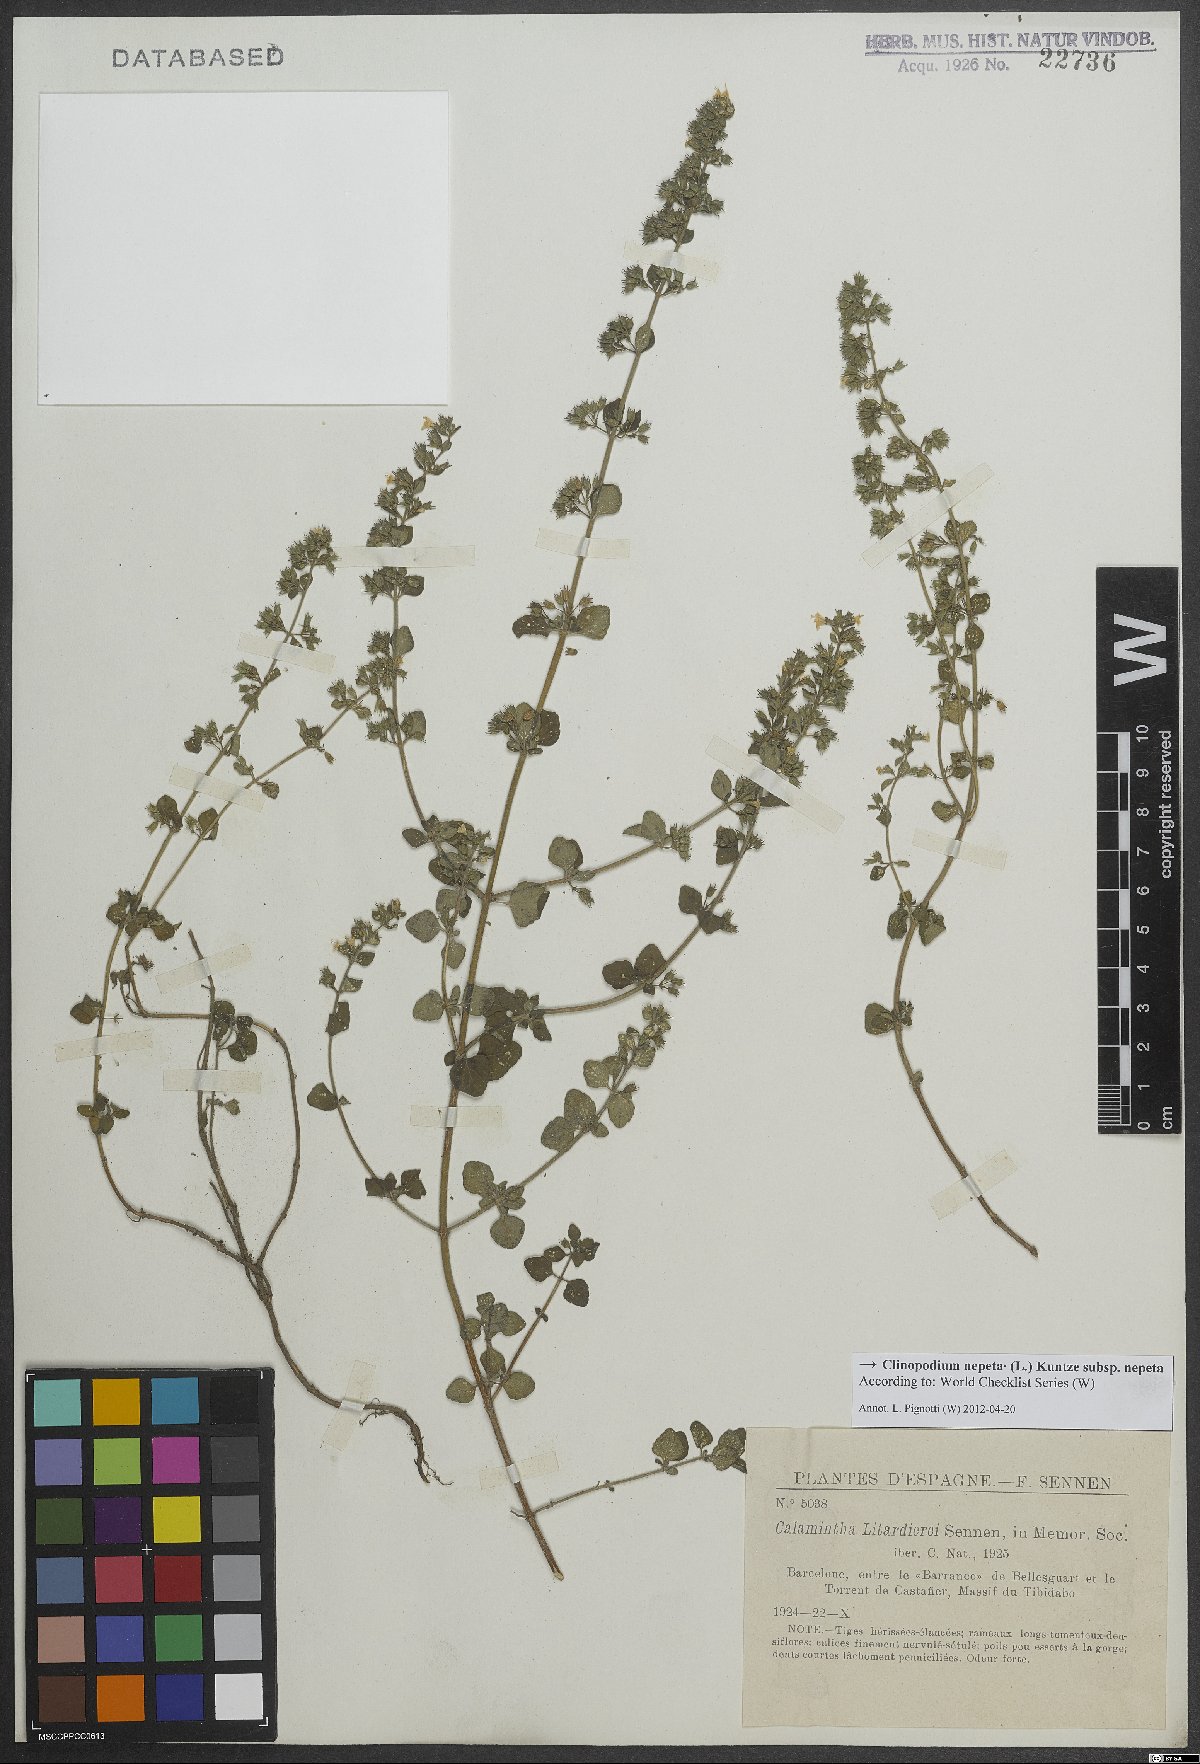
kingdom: Plantae
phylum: Tracheophyta
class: Magnoliopsida
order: Lamiales
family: Lamiaceae
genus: Clinopodium
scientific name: Clinopodium nepeta
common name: Lesser calamint
